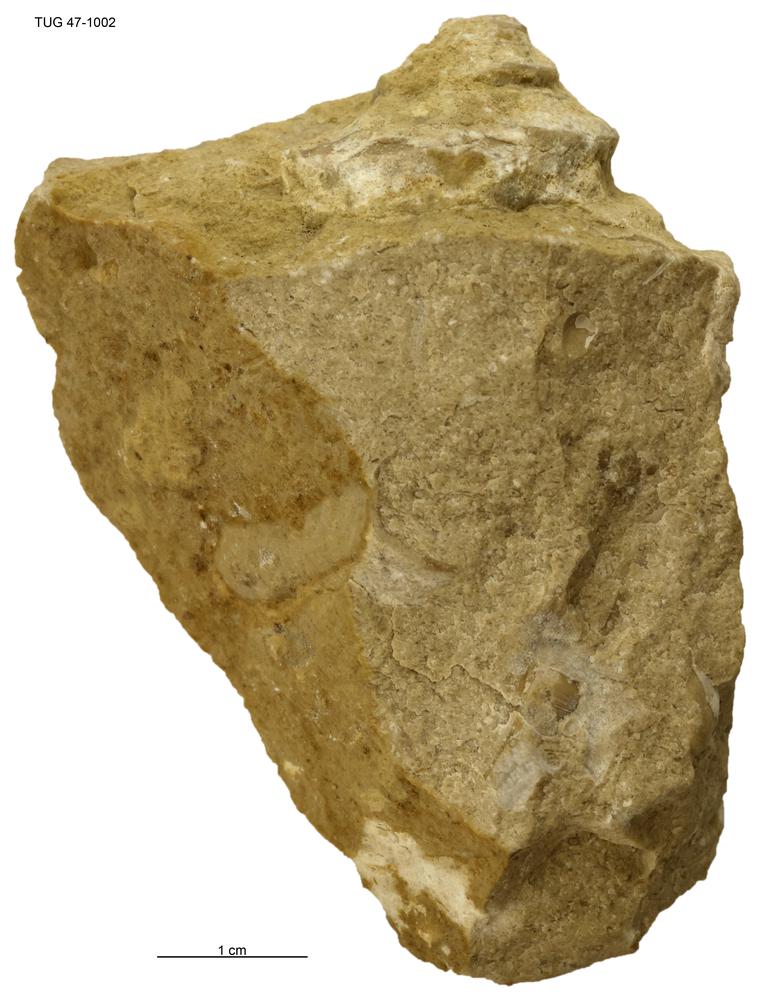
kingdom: Animalia
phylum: Mollusca
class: Gastropoda
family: Loxonematidae
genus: Loxonema
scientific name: Loxonema
